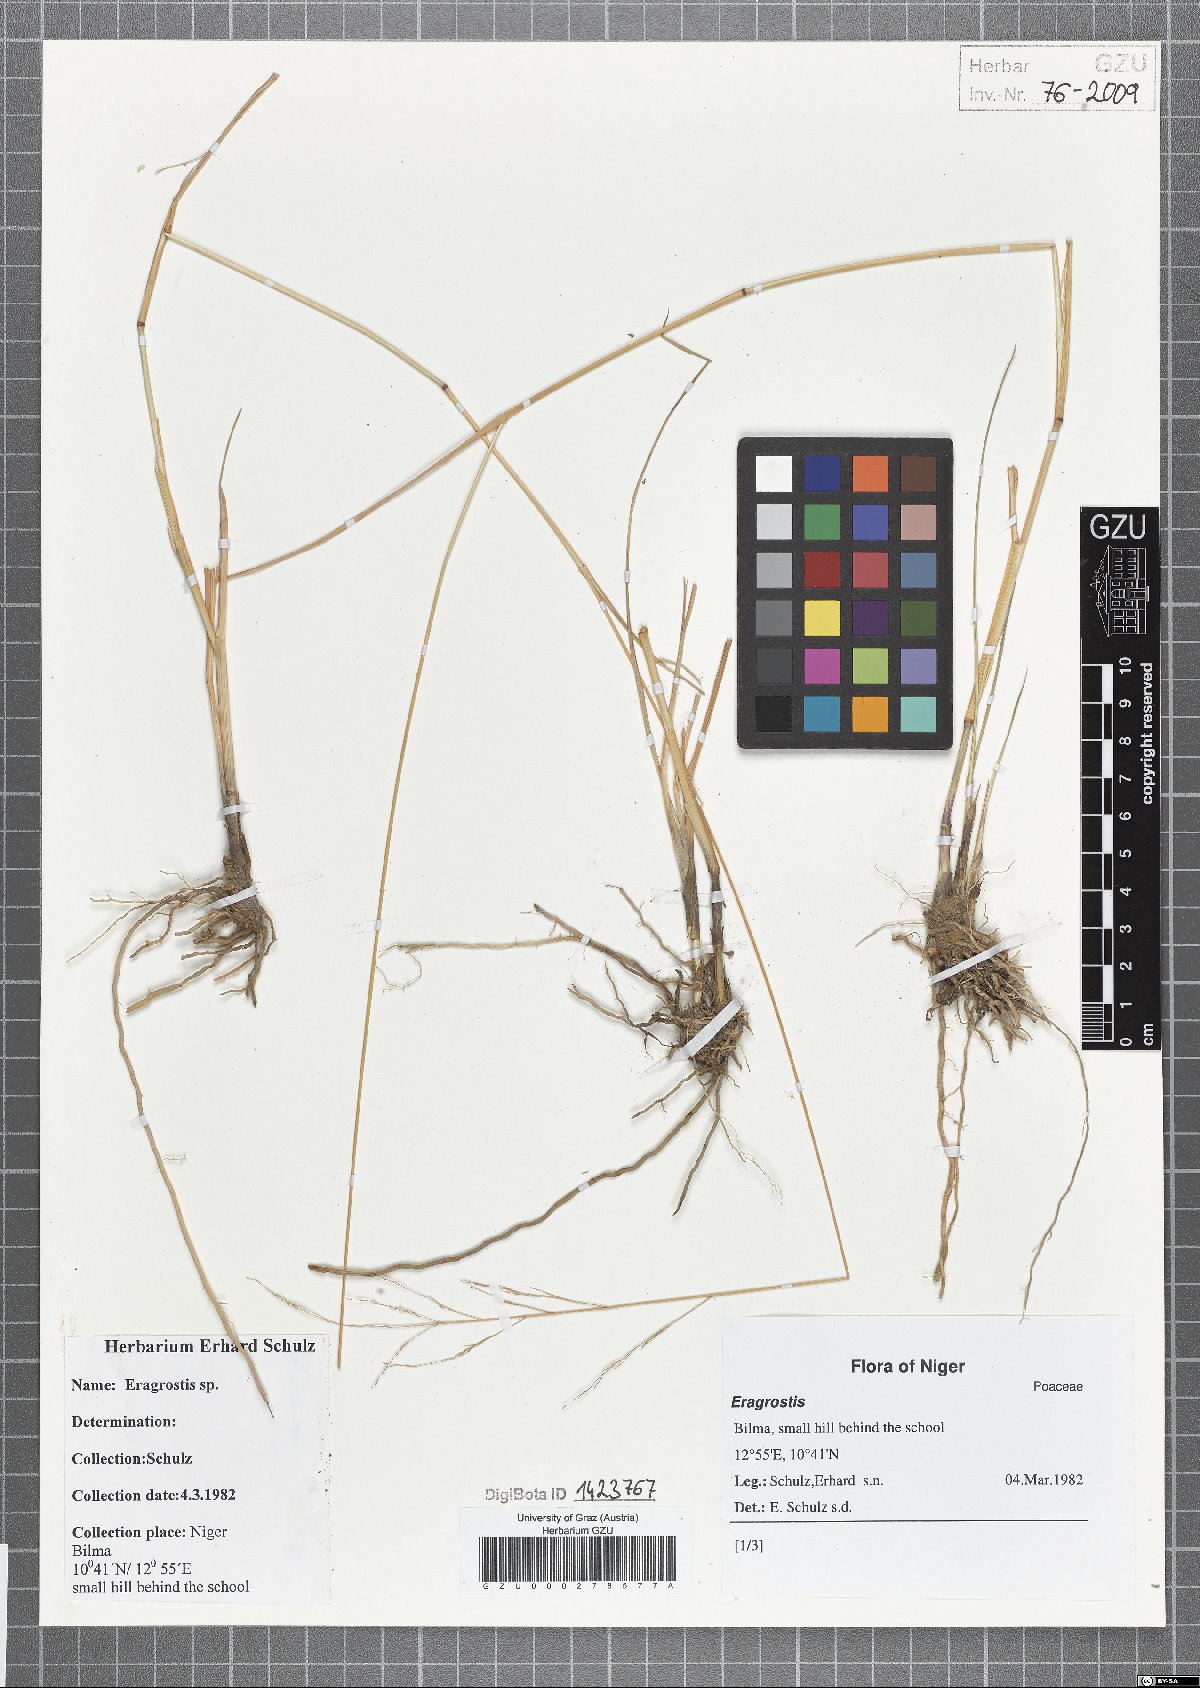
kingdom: Plantae
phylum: Tracheophyta
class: Liliopsida
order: Poales
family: Poaceae
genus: Eragrostis
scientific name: Eragrostis
